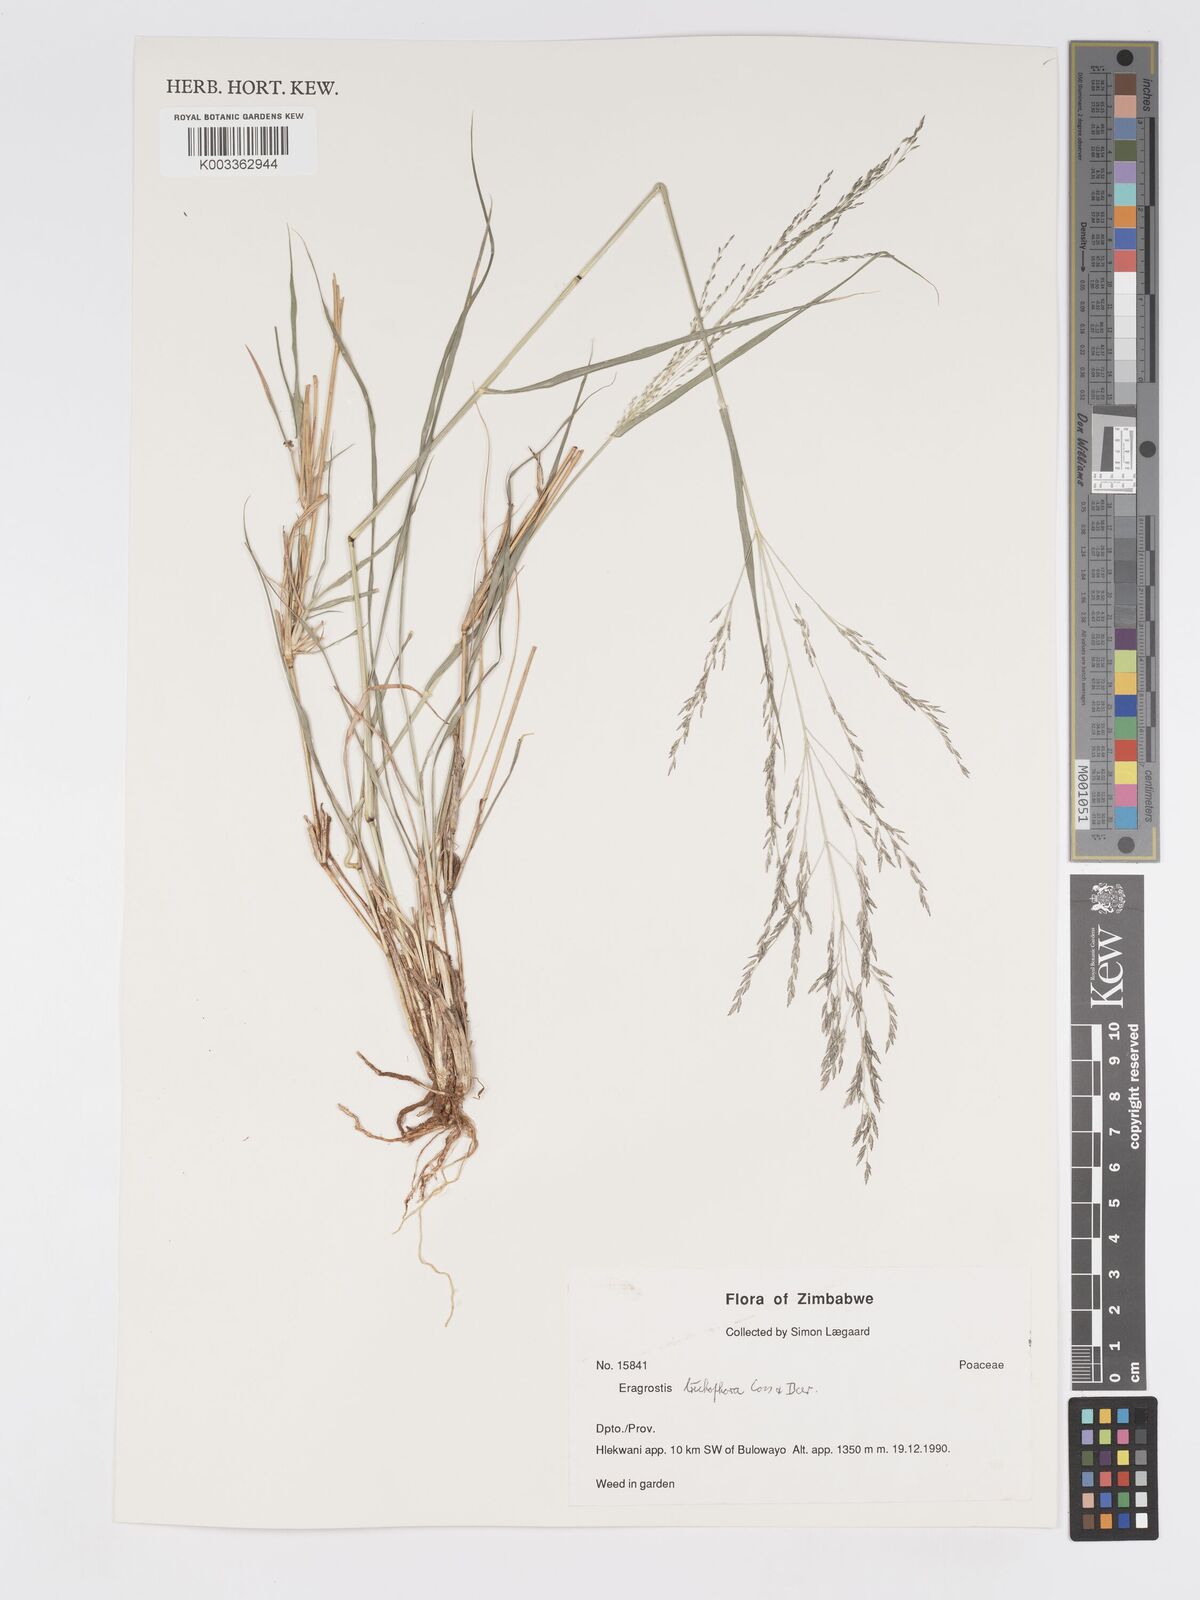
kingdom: Plantae
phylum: Tracheophyta
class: Liliopsida
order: Poales
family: Poaceae
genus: Eragrostis
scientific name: Eragrostis cylindriflora
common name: Cylinderflower lovegrass
